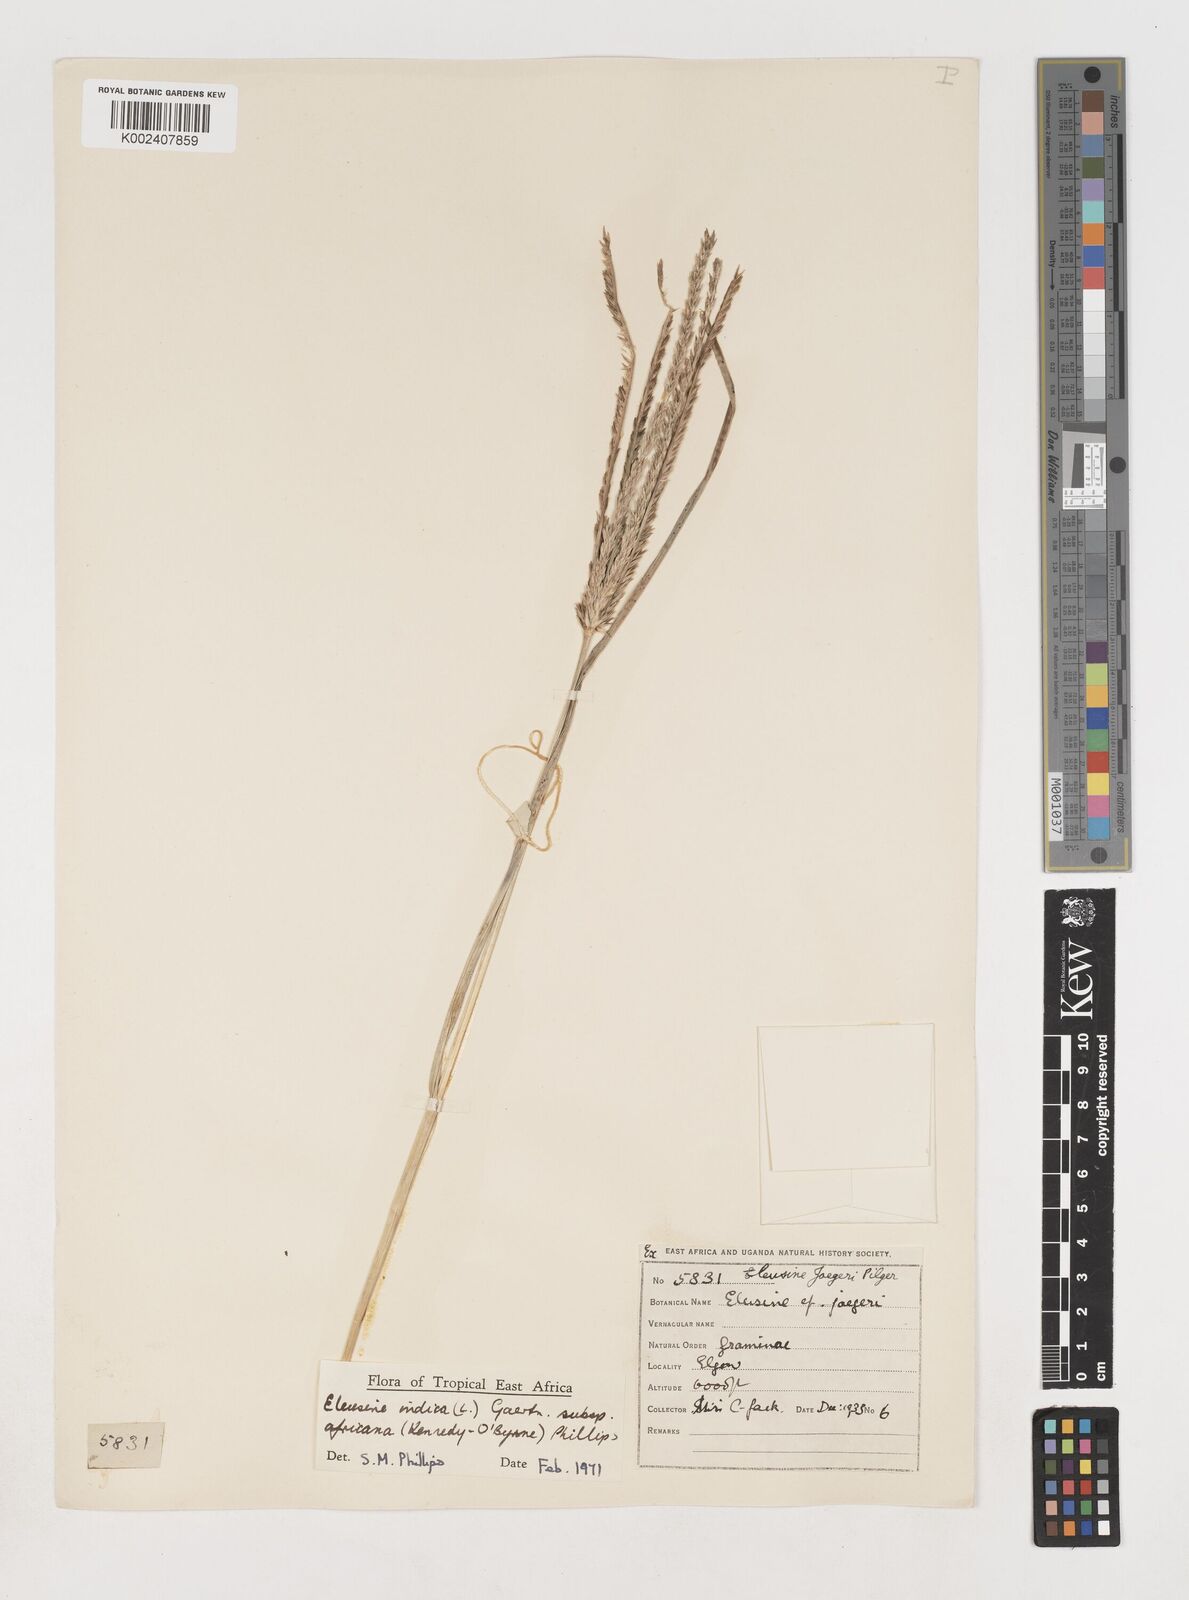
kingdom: Plantae
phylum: Tracheophyta
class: Liliopsida
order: Poales
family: Poaceae
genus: Eleusine
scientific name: Eleusine africana
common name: Wild african finger millet
